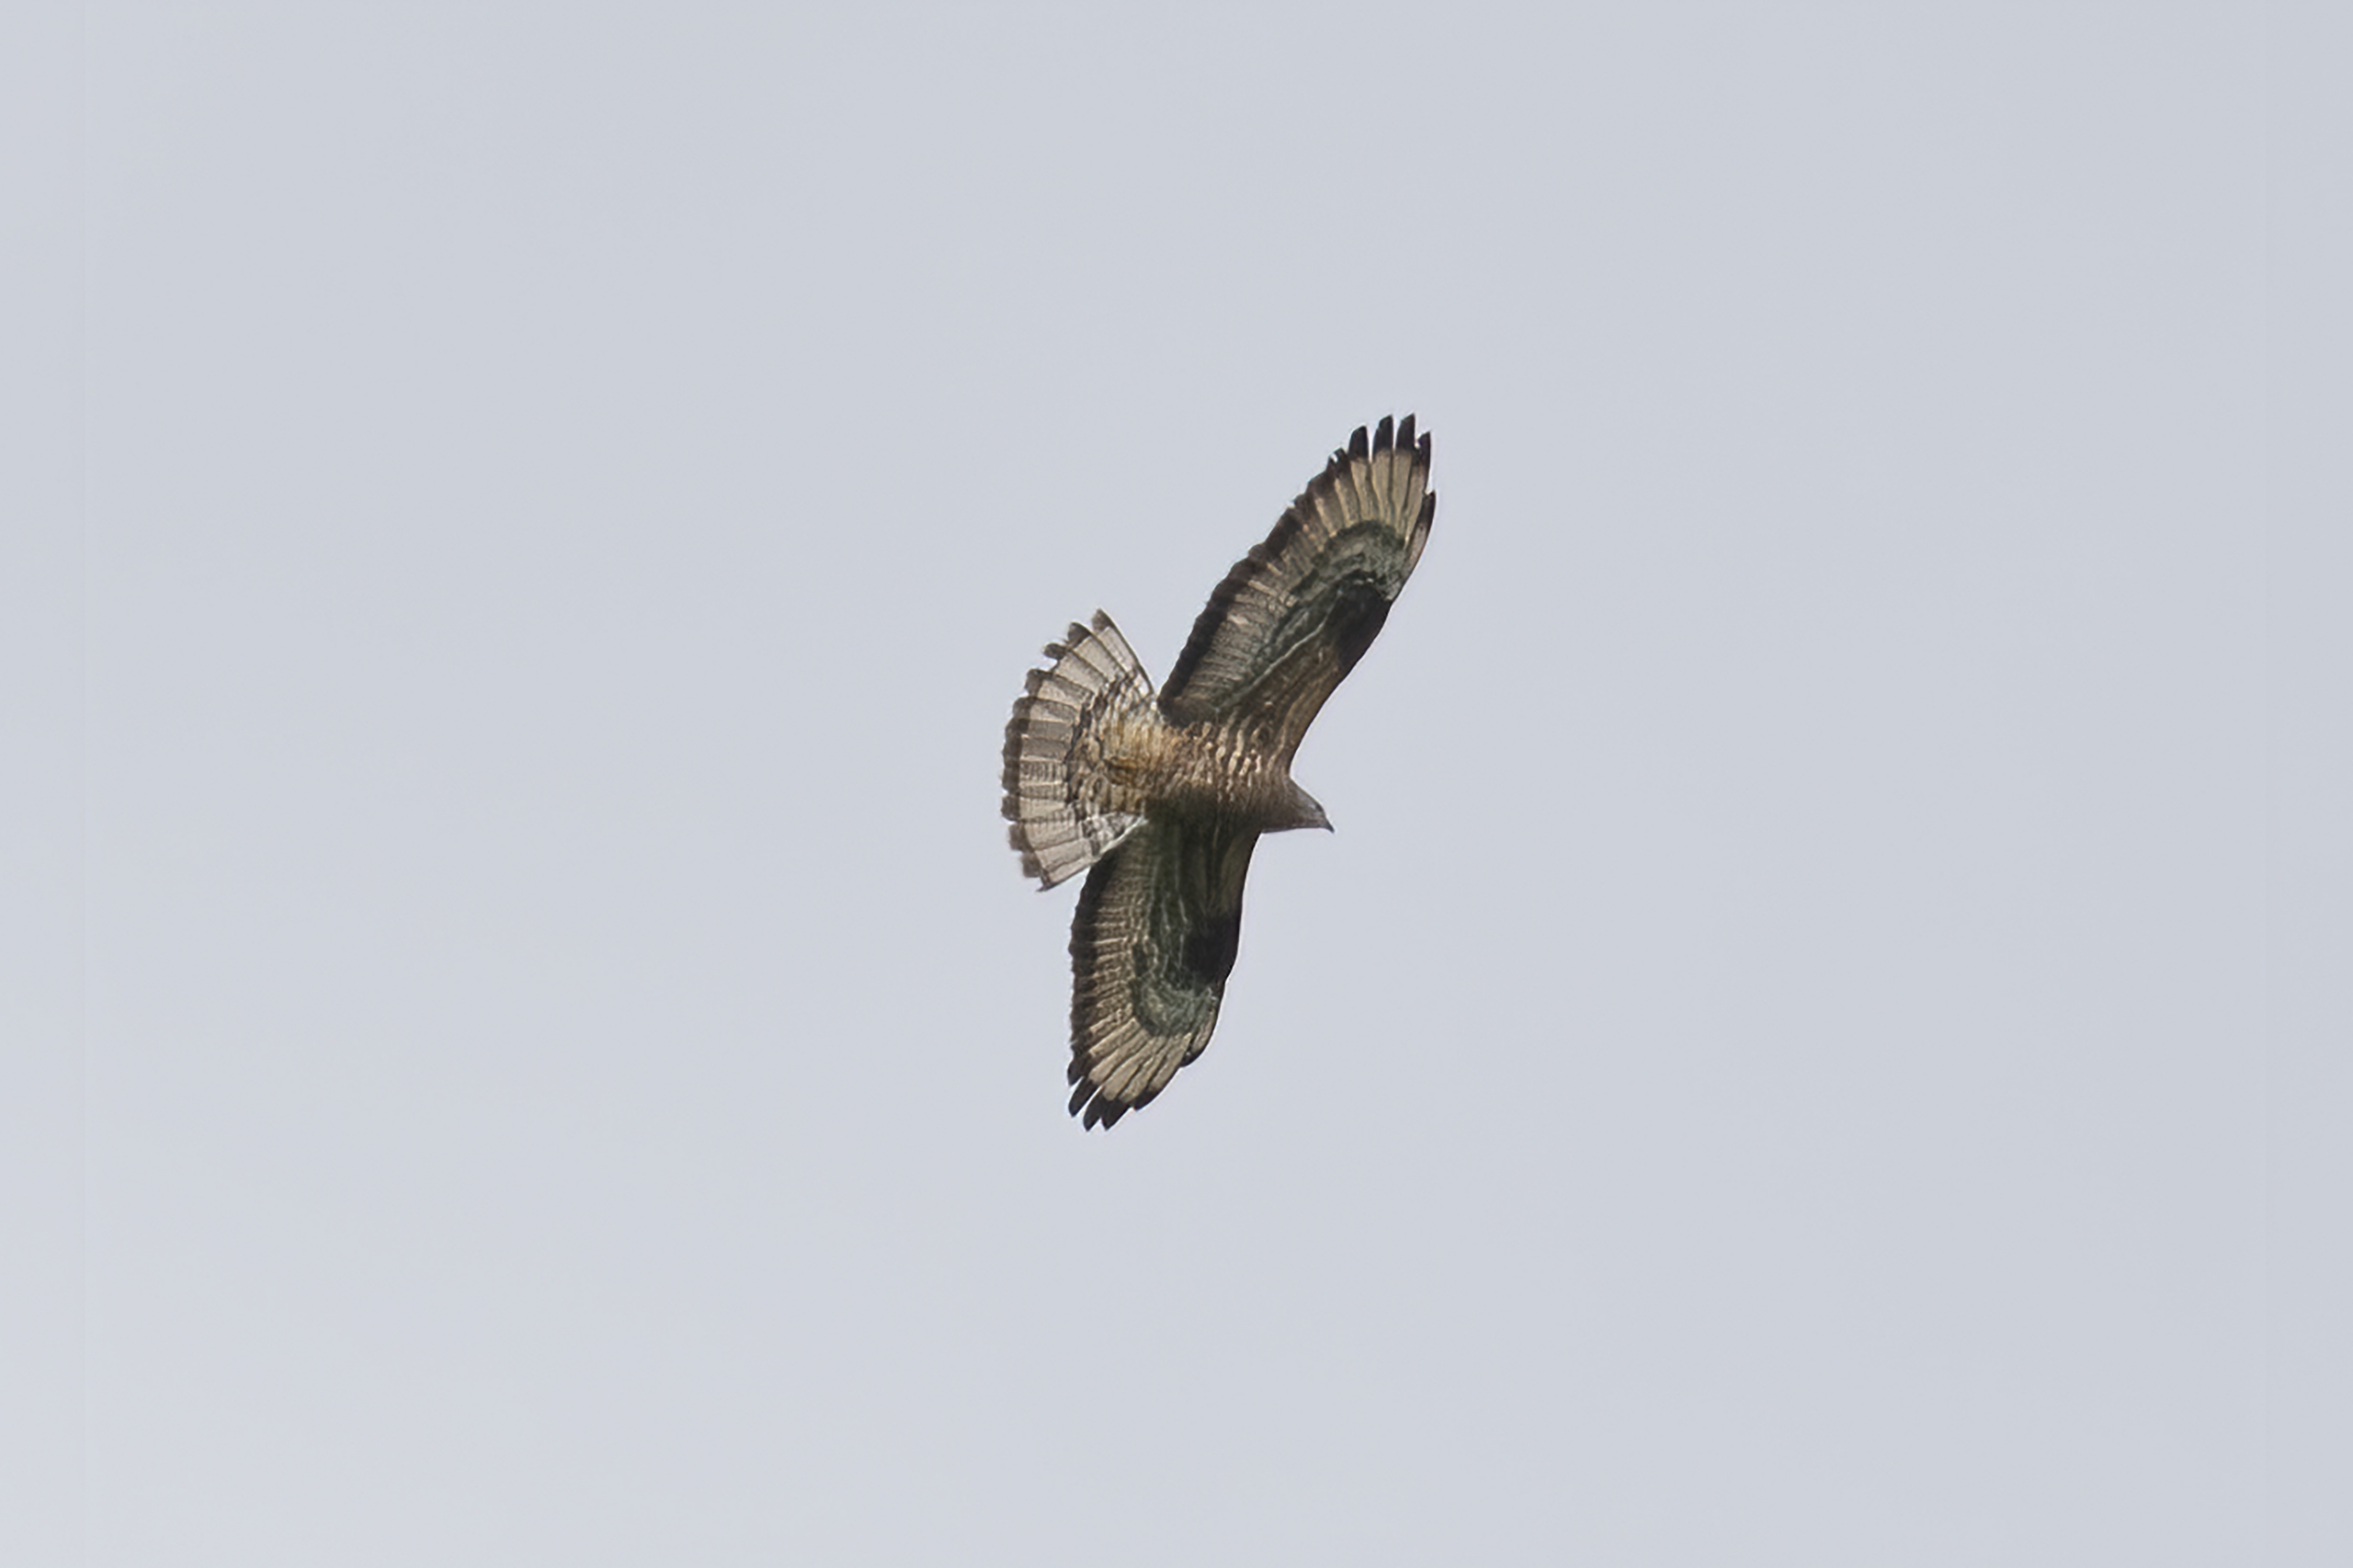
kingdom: Animalia
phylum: Chordata
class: Aves
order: Accipitriformes
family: Accipitridae
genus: Pernis
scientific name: Pernis apivorus
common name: Hvepsevåge
